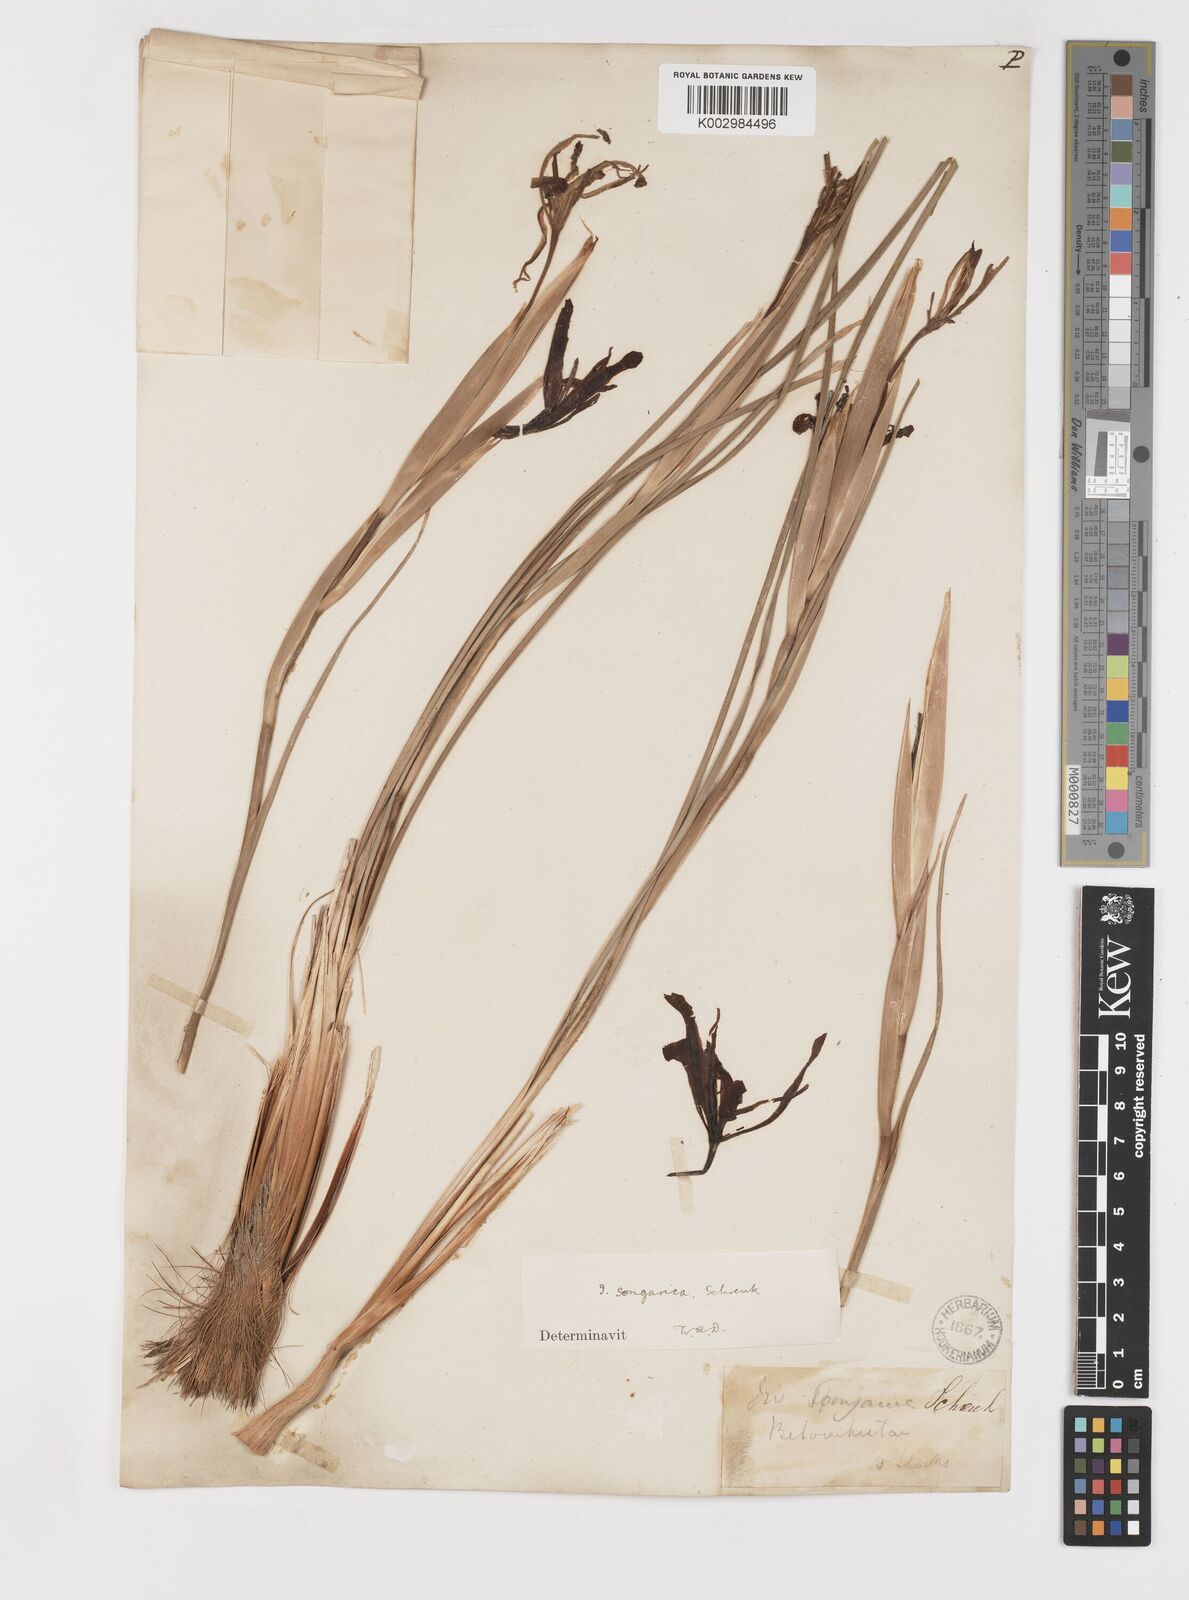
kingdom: Plantae
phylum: Tracheophyta
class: Liliopsida
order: Asparagales
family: Iridaceae
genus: Iris
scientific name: Iris songarica
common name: Songar iris
